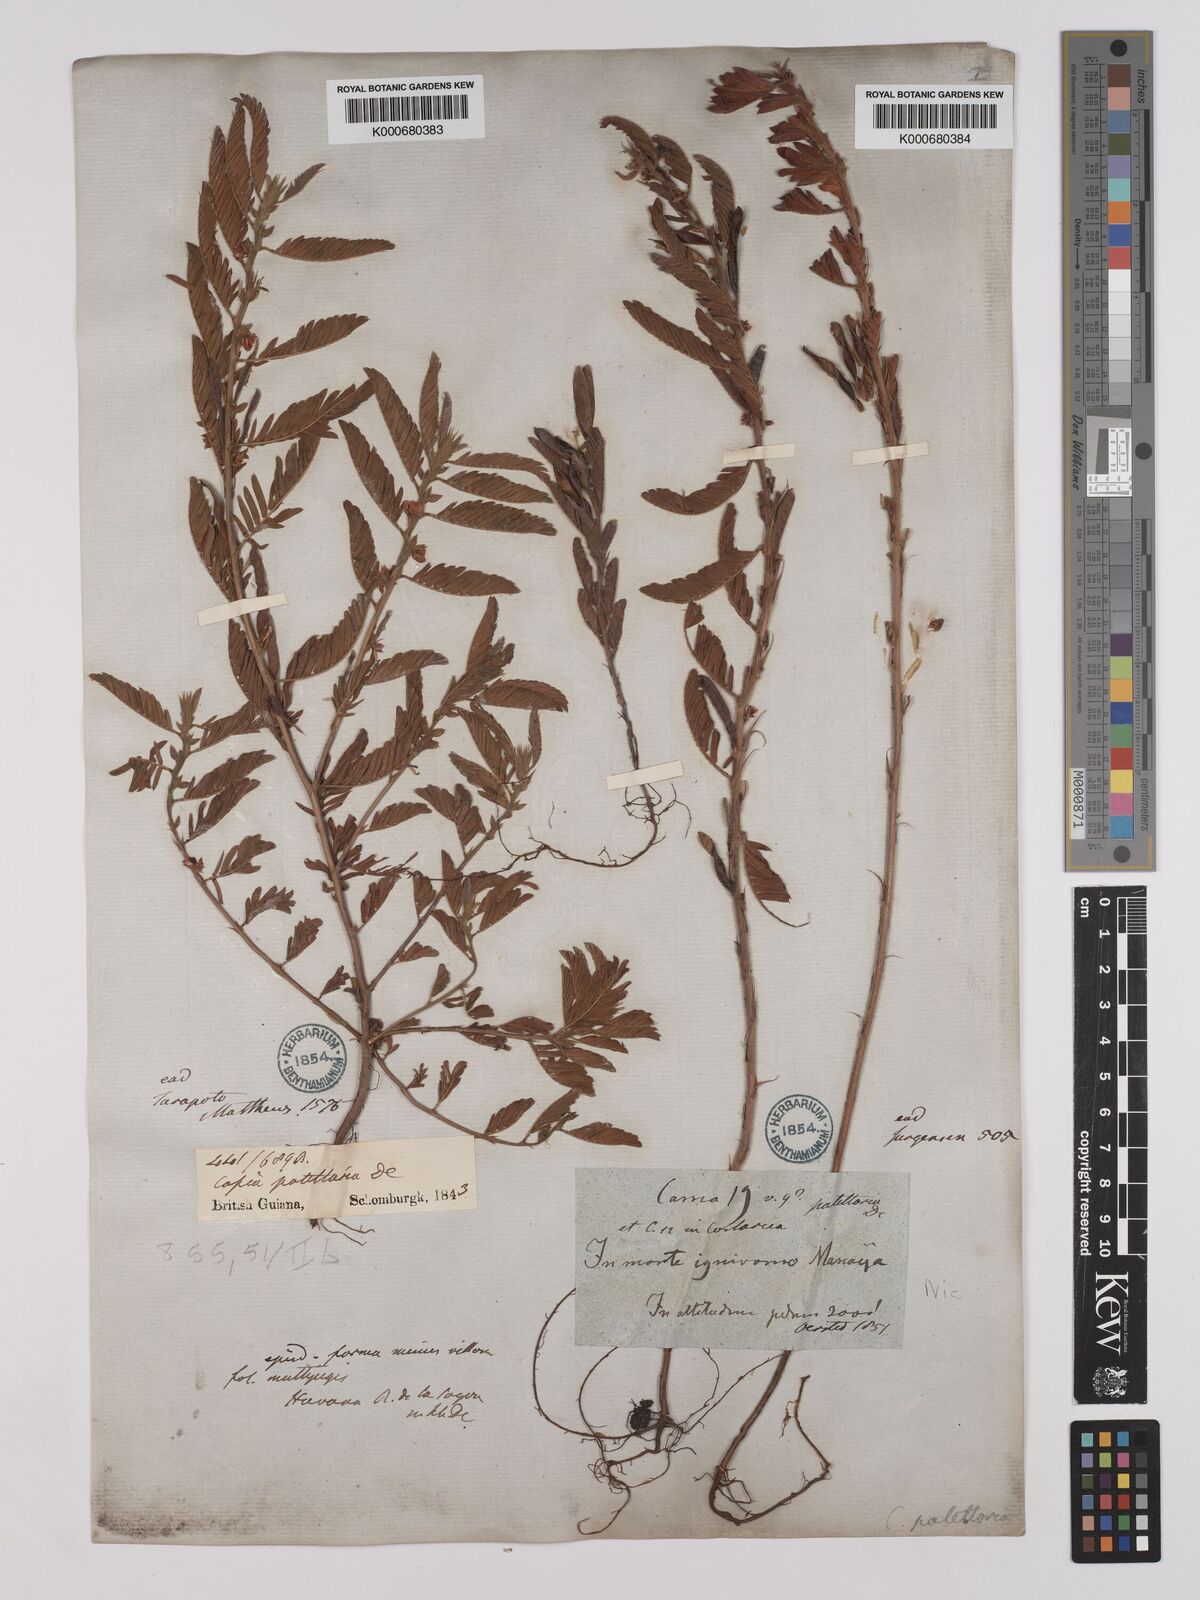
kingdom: Plantae
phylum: Tracheophyta
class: Magnoliopsida
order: Fabales
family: Fabaceae
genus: Chamaecrista
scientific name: Chamaecrista nictitans
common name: Sensitive cassia
